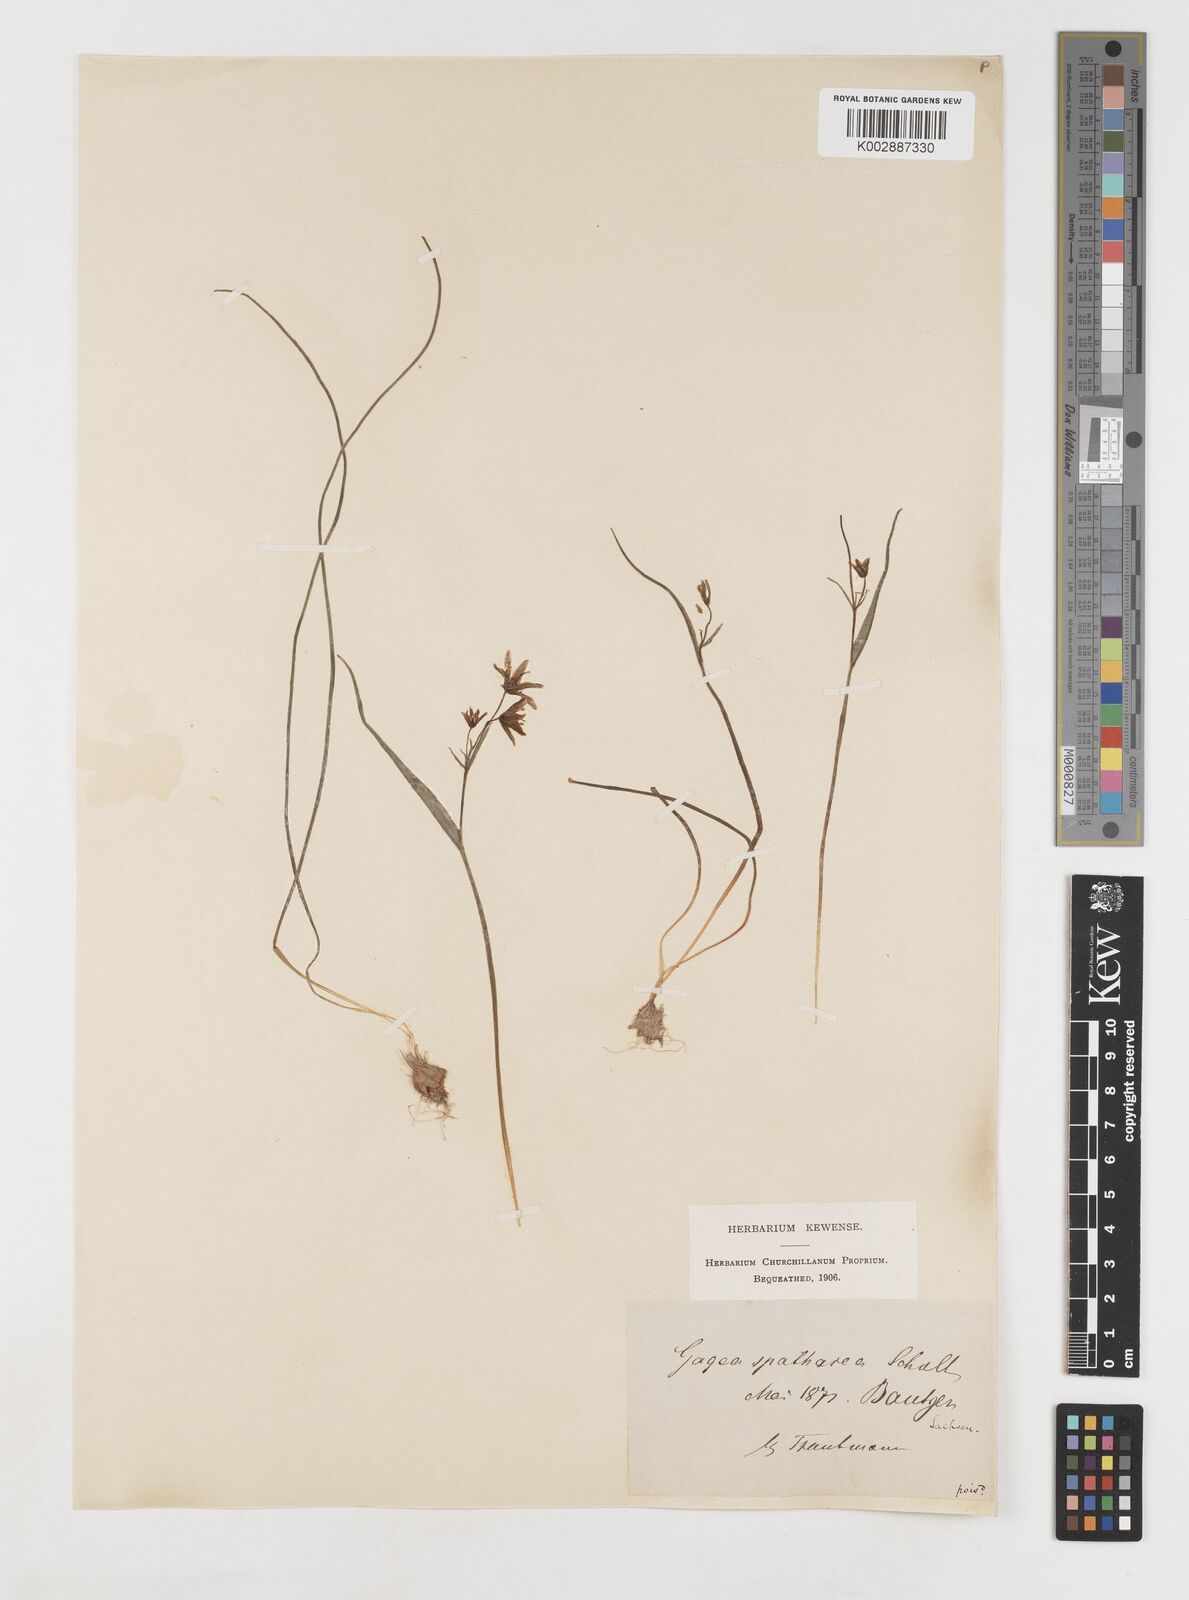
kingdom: Plantae
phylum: Tracheophyta
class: Liliopsida
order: Liliales
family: Liliaceae
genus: Gagea
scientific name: Gagea spathacea
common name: Belgian gagea
